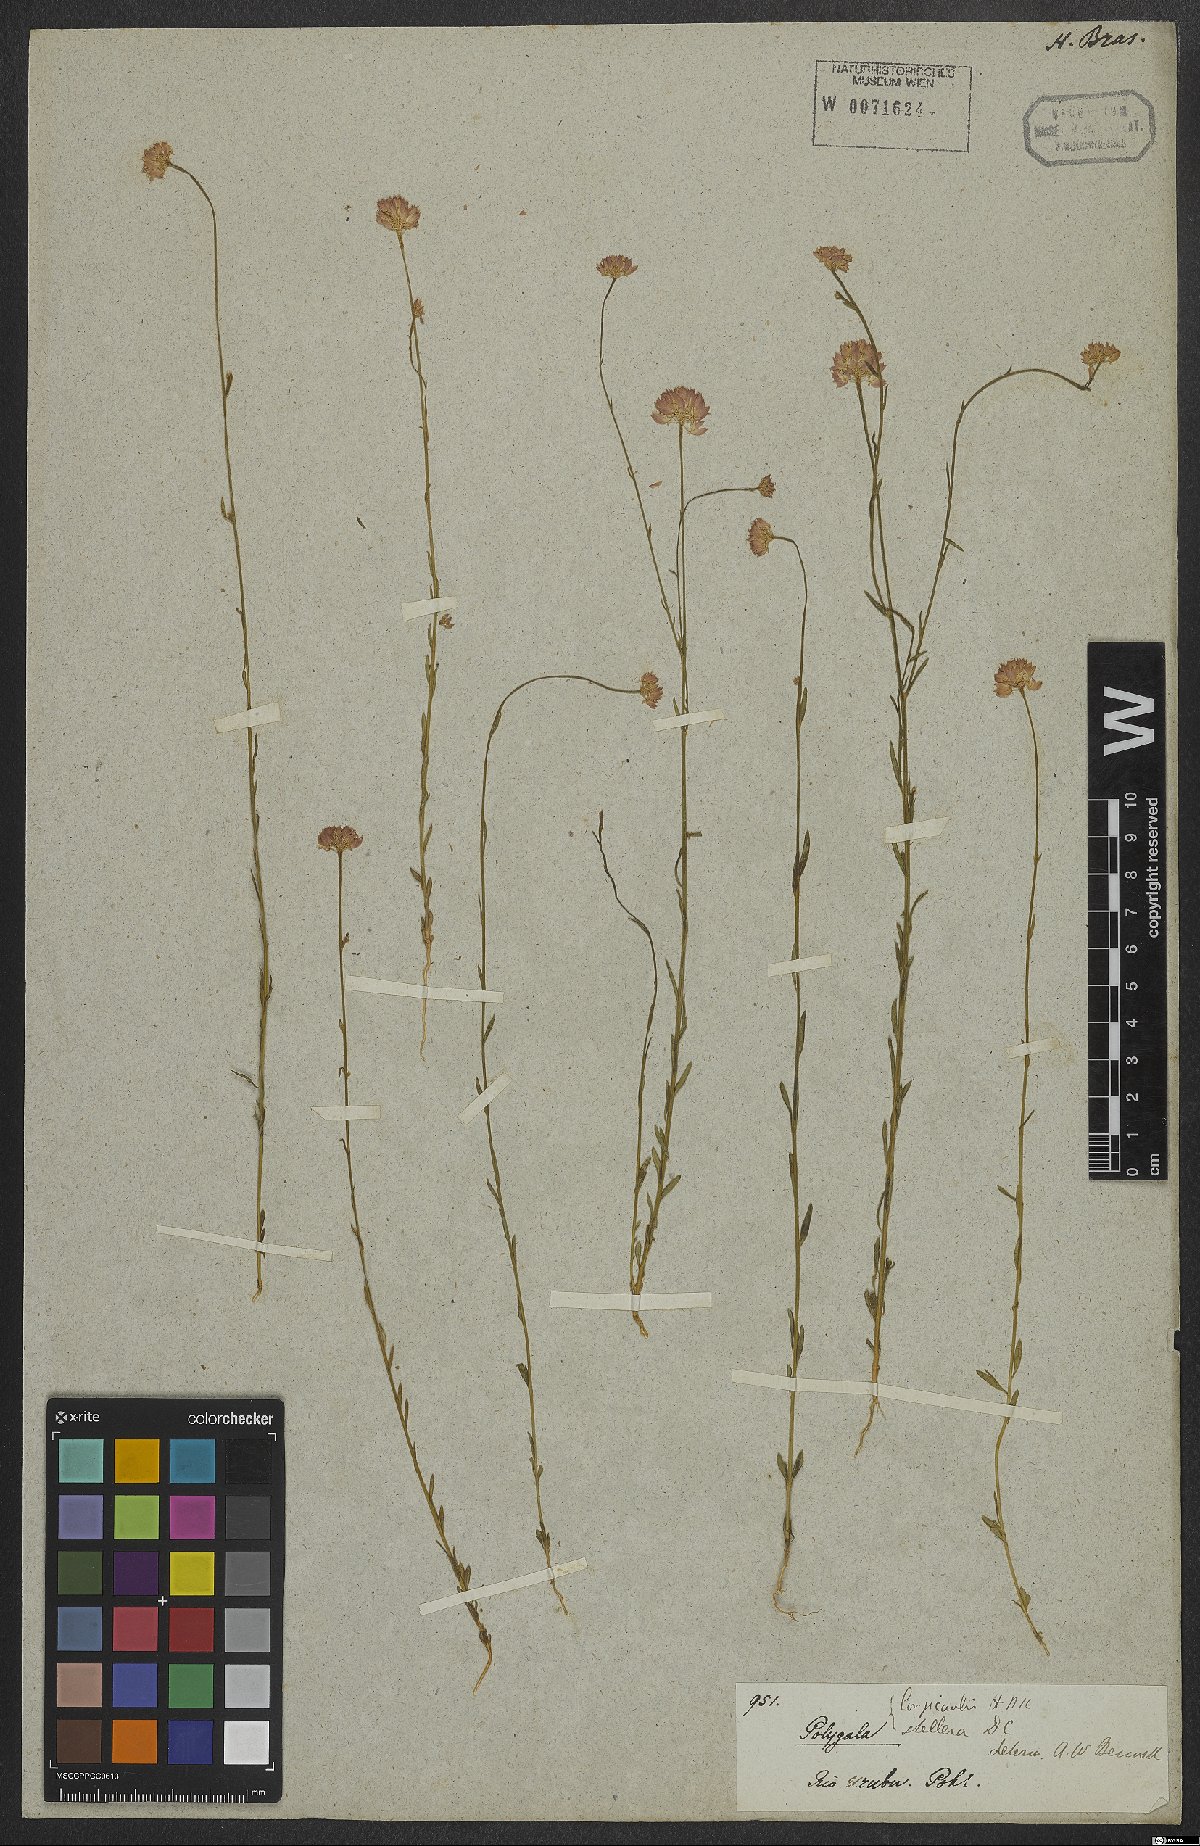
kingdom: Plantae
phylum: Tracheophyta
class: Magnoliopsida
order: Fabales
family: Polygalaceae
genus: Polygala
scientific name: Polygala longicaulis
